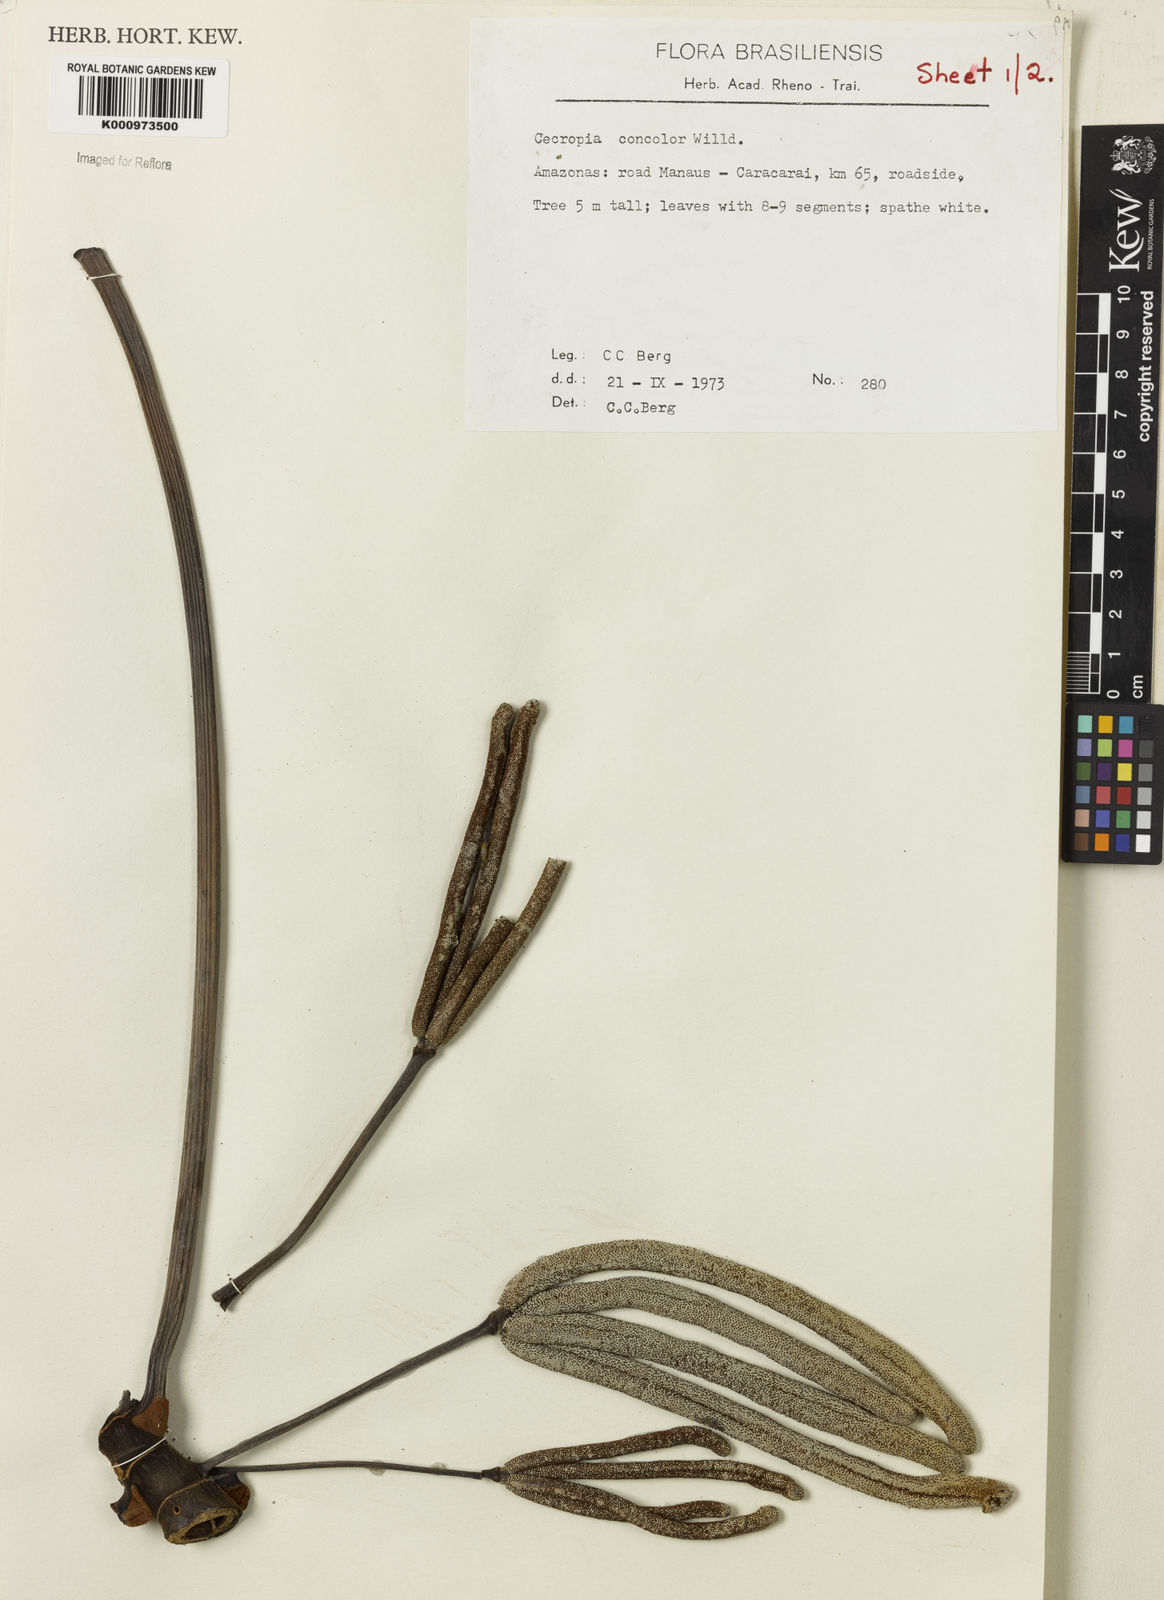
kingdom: Plantae
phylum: Tracheophyta
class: Magnoliopsida
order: Rosales
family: Urticaceae
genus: Cecropia
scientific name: Cecropia concolor
